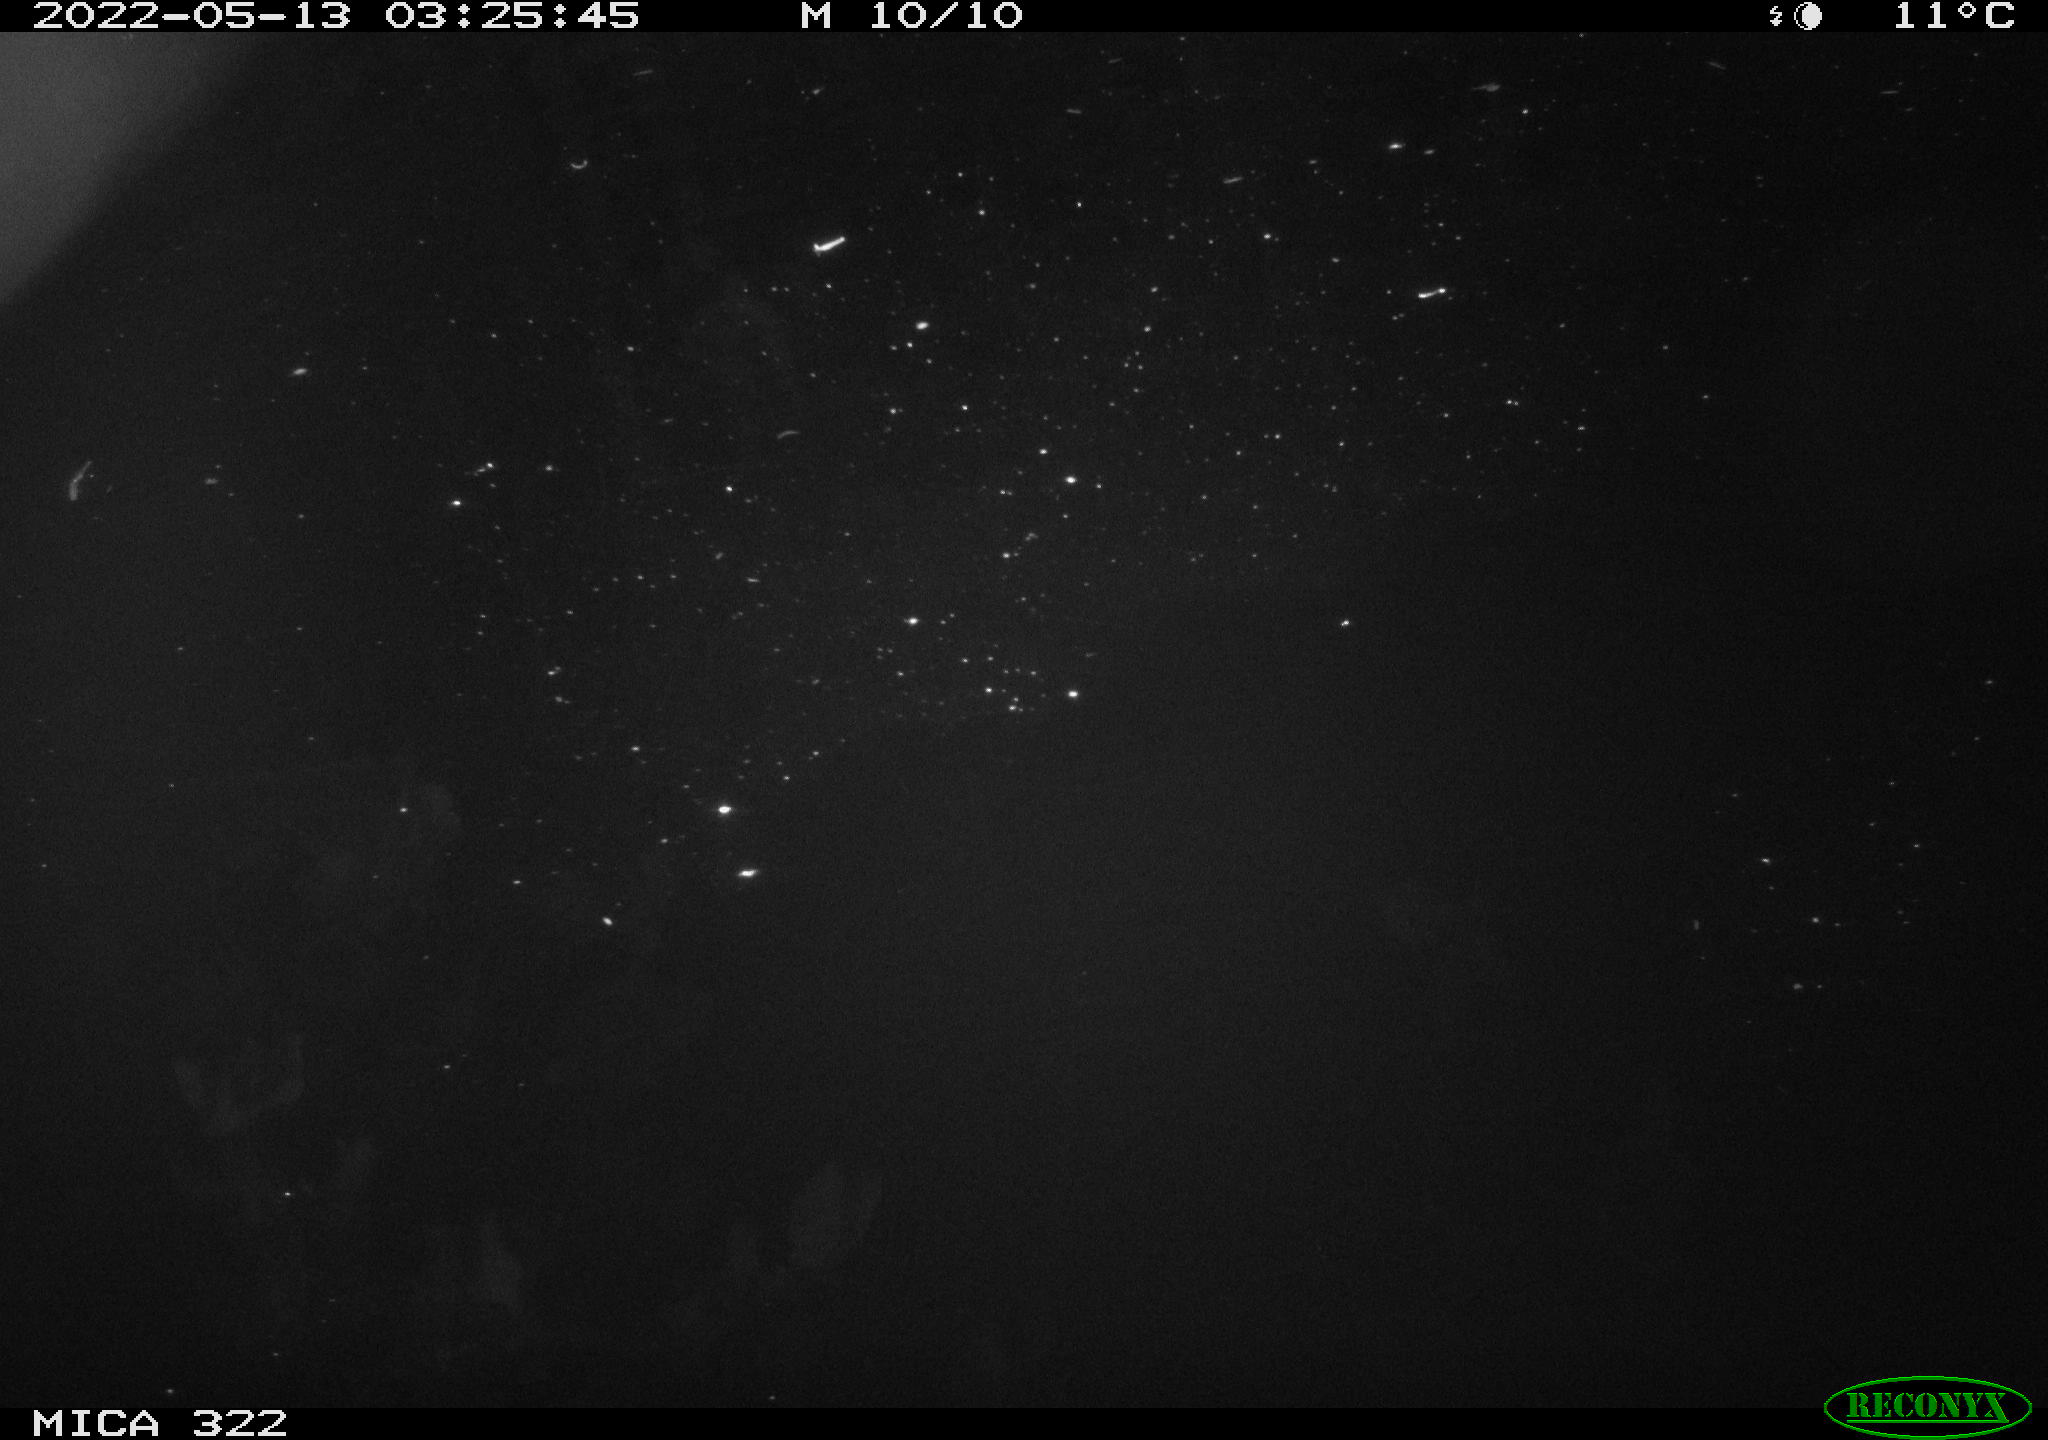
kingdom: Animalia
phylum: Chordata
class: Aves
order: Anseriformes
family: Anatidae
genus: Anas
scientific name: Anas platyrhynchos
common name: Mallard
